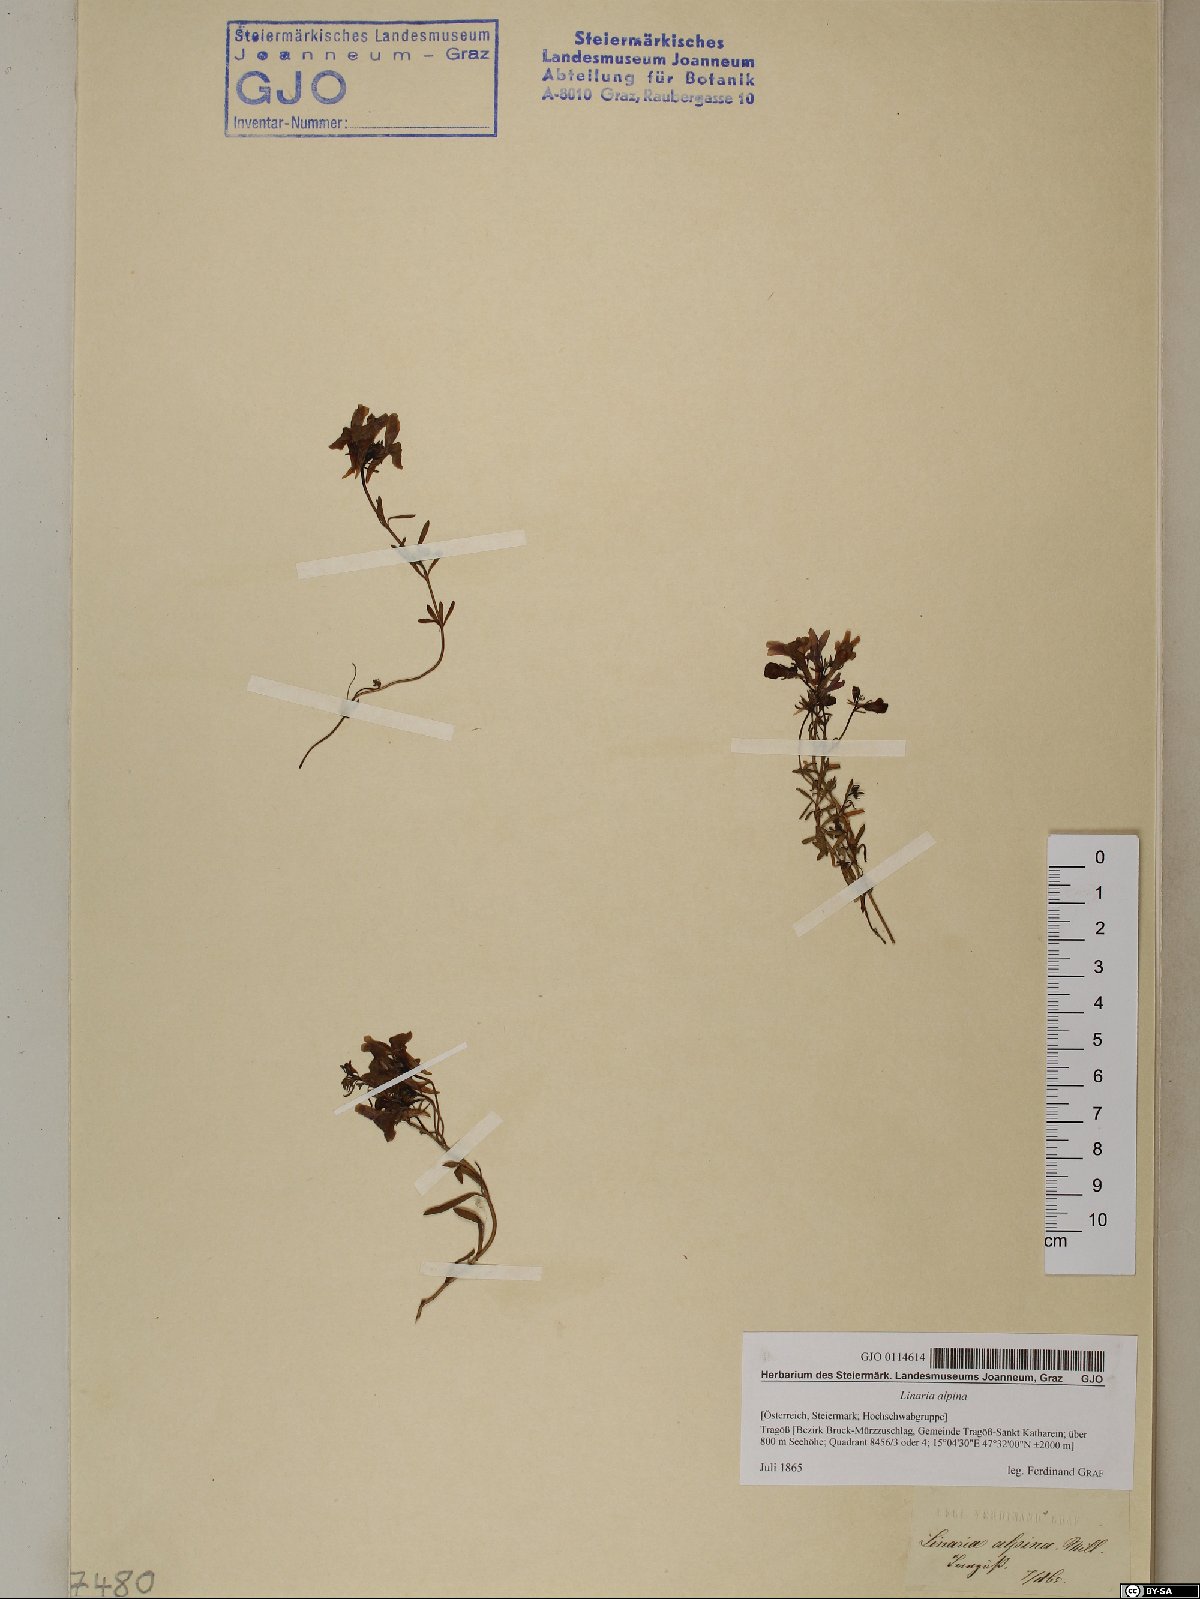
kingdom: Plantae
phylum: Tracheophyta
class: Magnoliopsida
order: Lamiales
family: Plantaginaceae
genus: Linaria
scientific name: Linaria alpina
